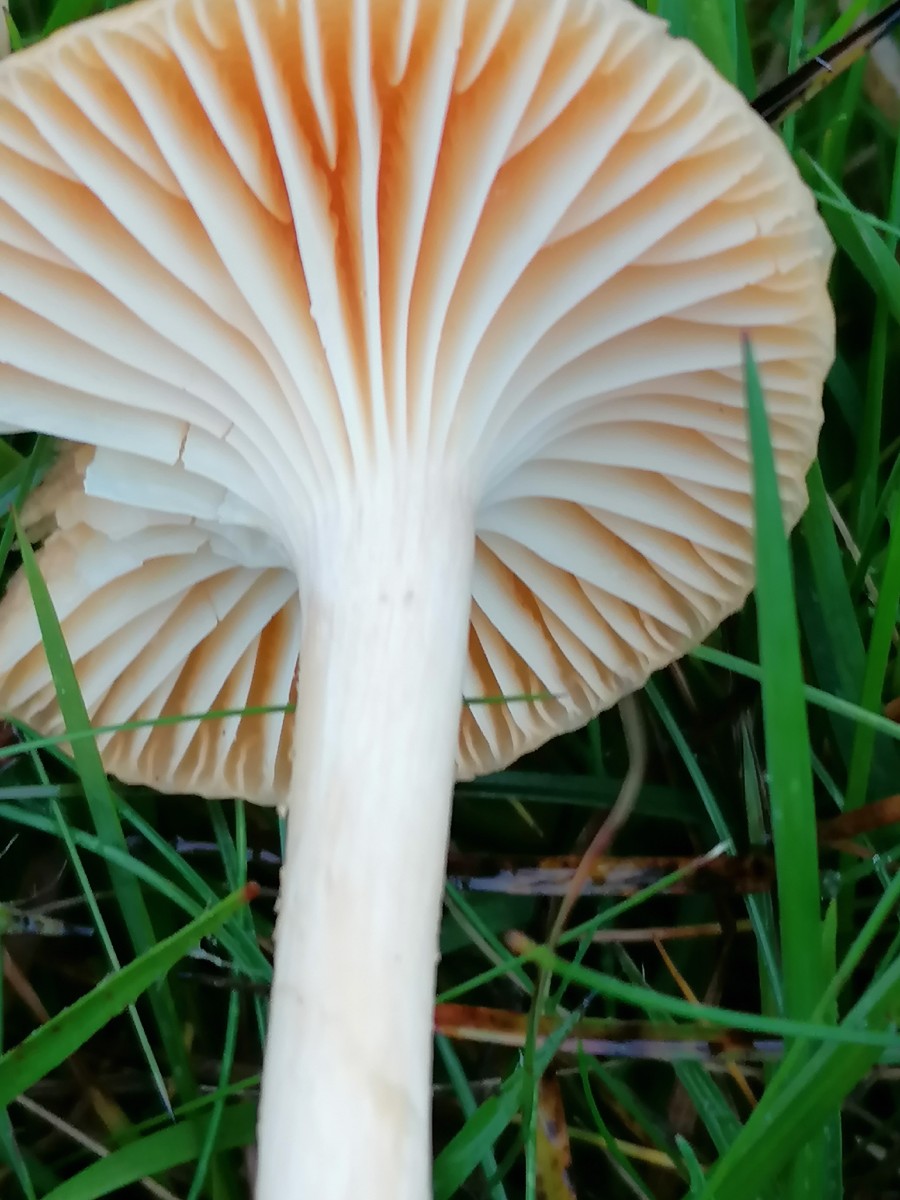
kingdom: Fungi
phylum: Basidiomycota
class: Agaricomycetes
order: Agaricales
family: Hygrophoraceae
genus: Cuphophyllus
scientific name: Cuphophyllus pratensis
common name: eng-vokshat
